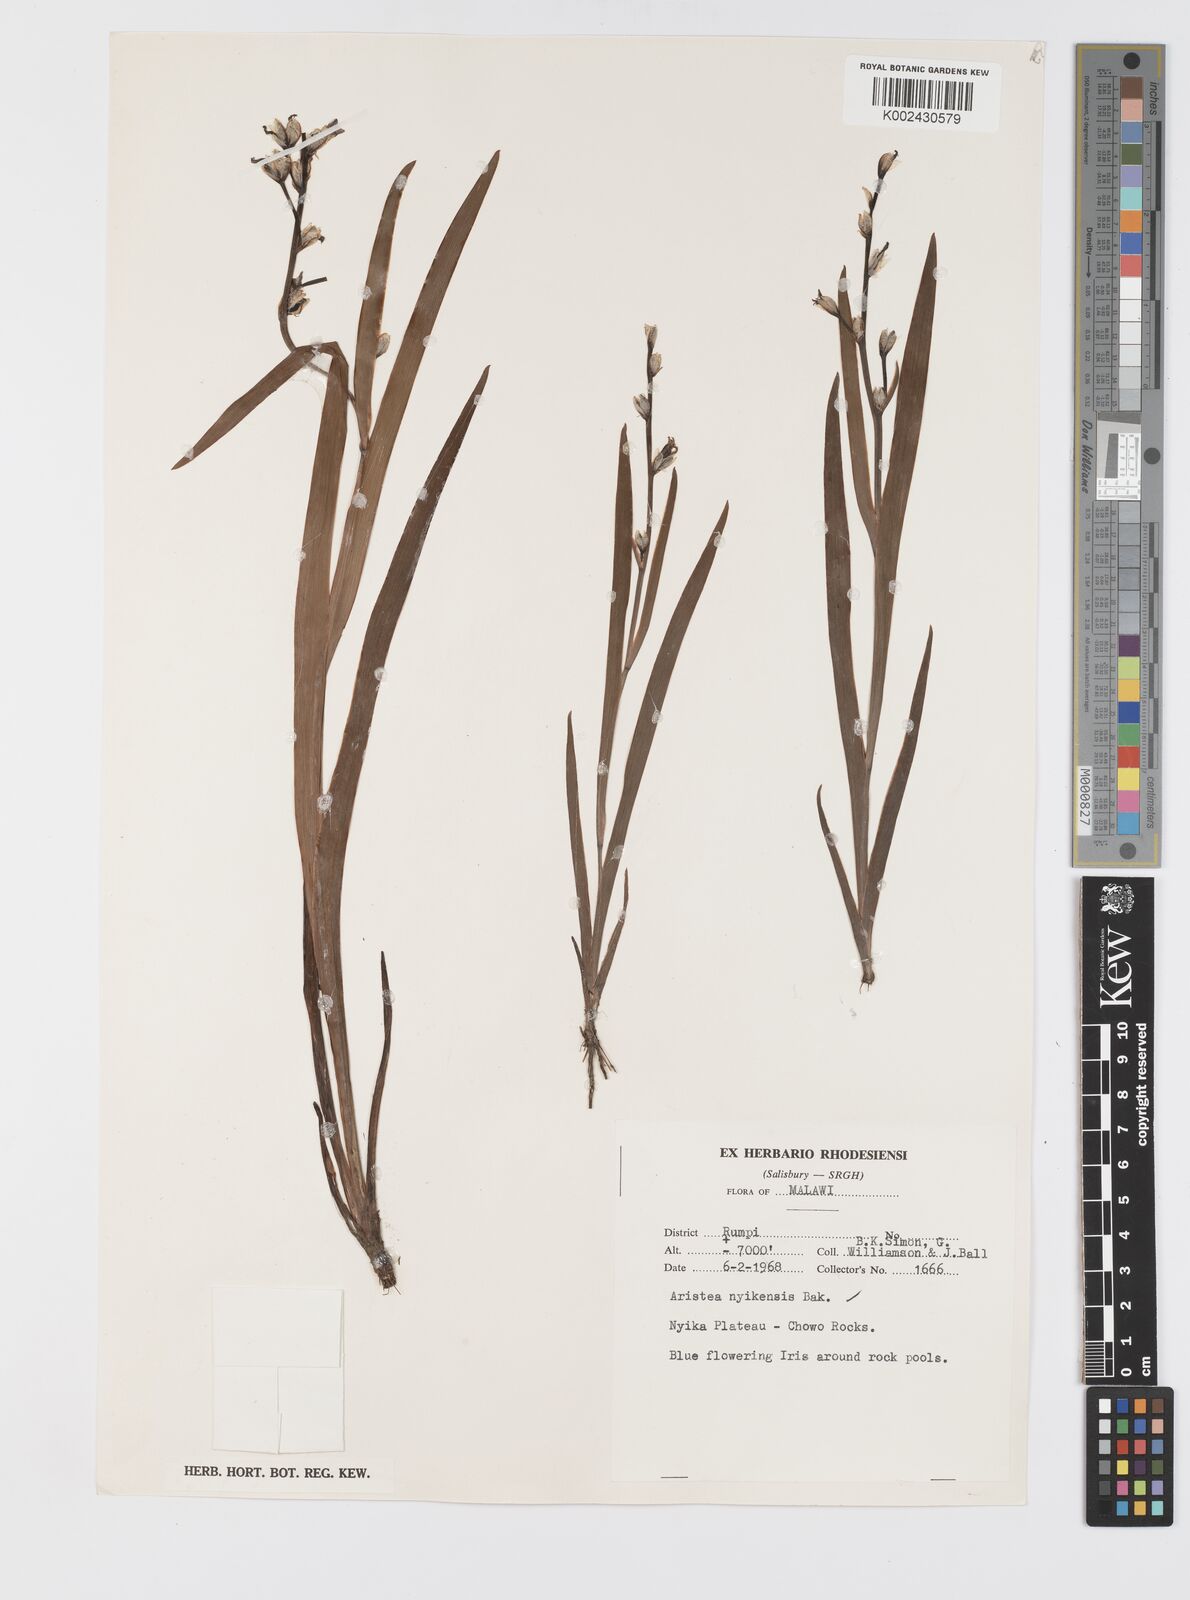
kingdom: Plantae
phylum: Tracheophyta
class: Liliopsida
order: Asparagales
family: Iridaceae
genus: Aristea
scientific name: Aristea nyikensis
